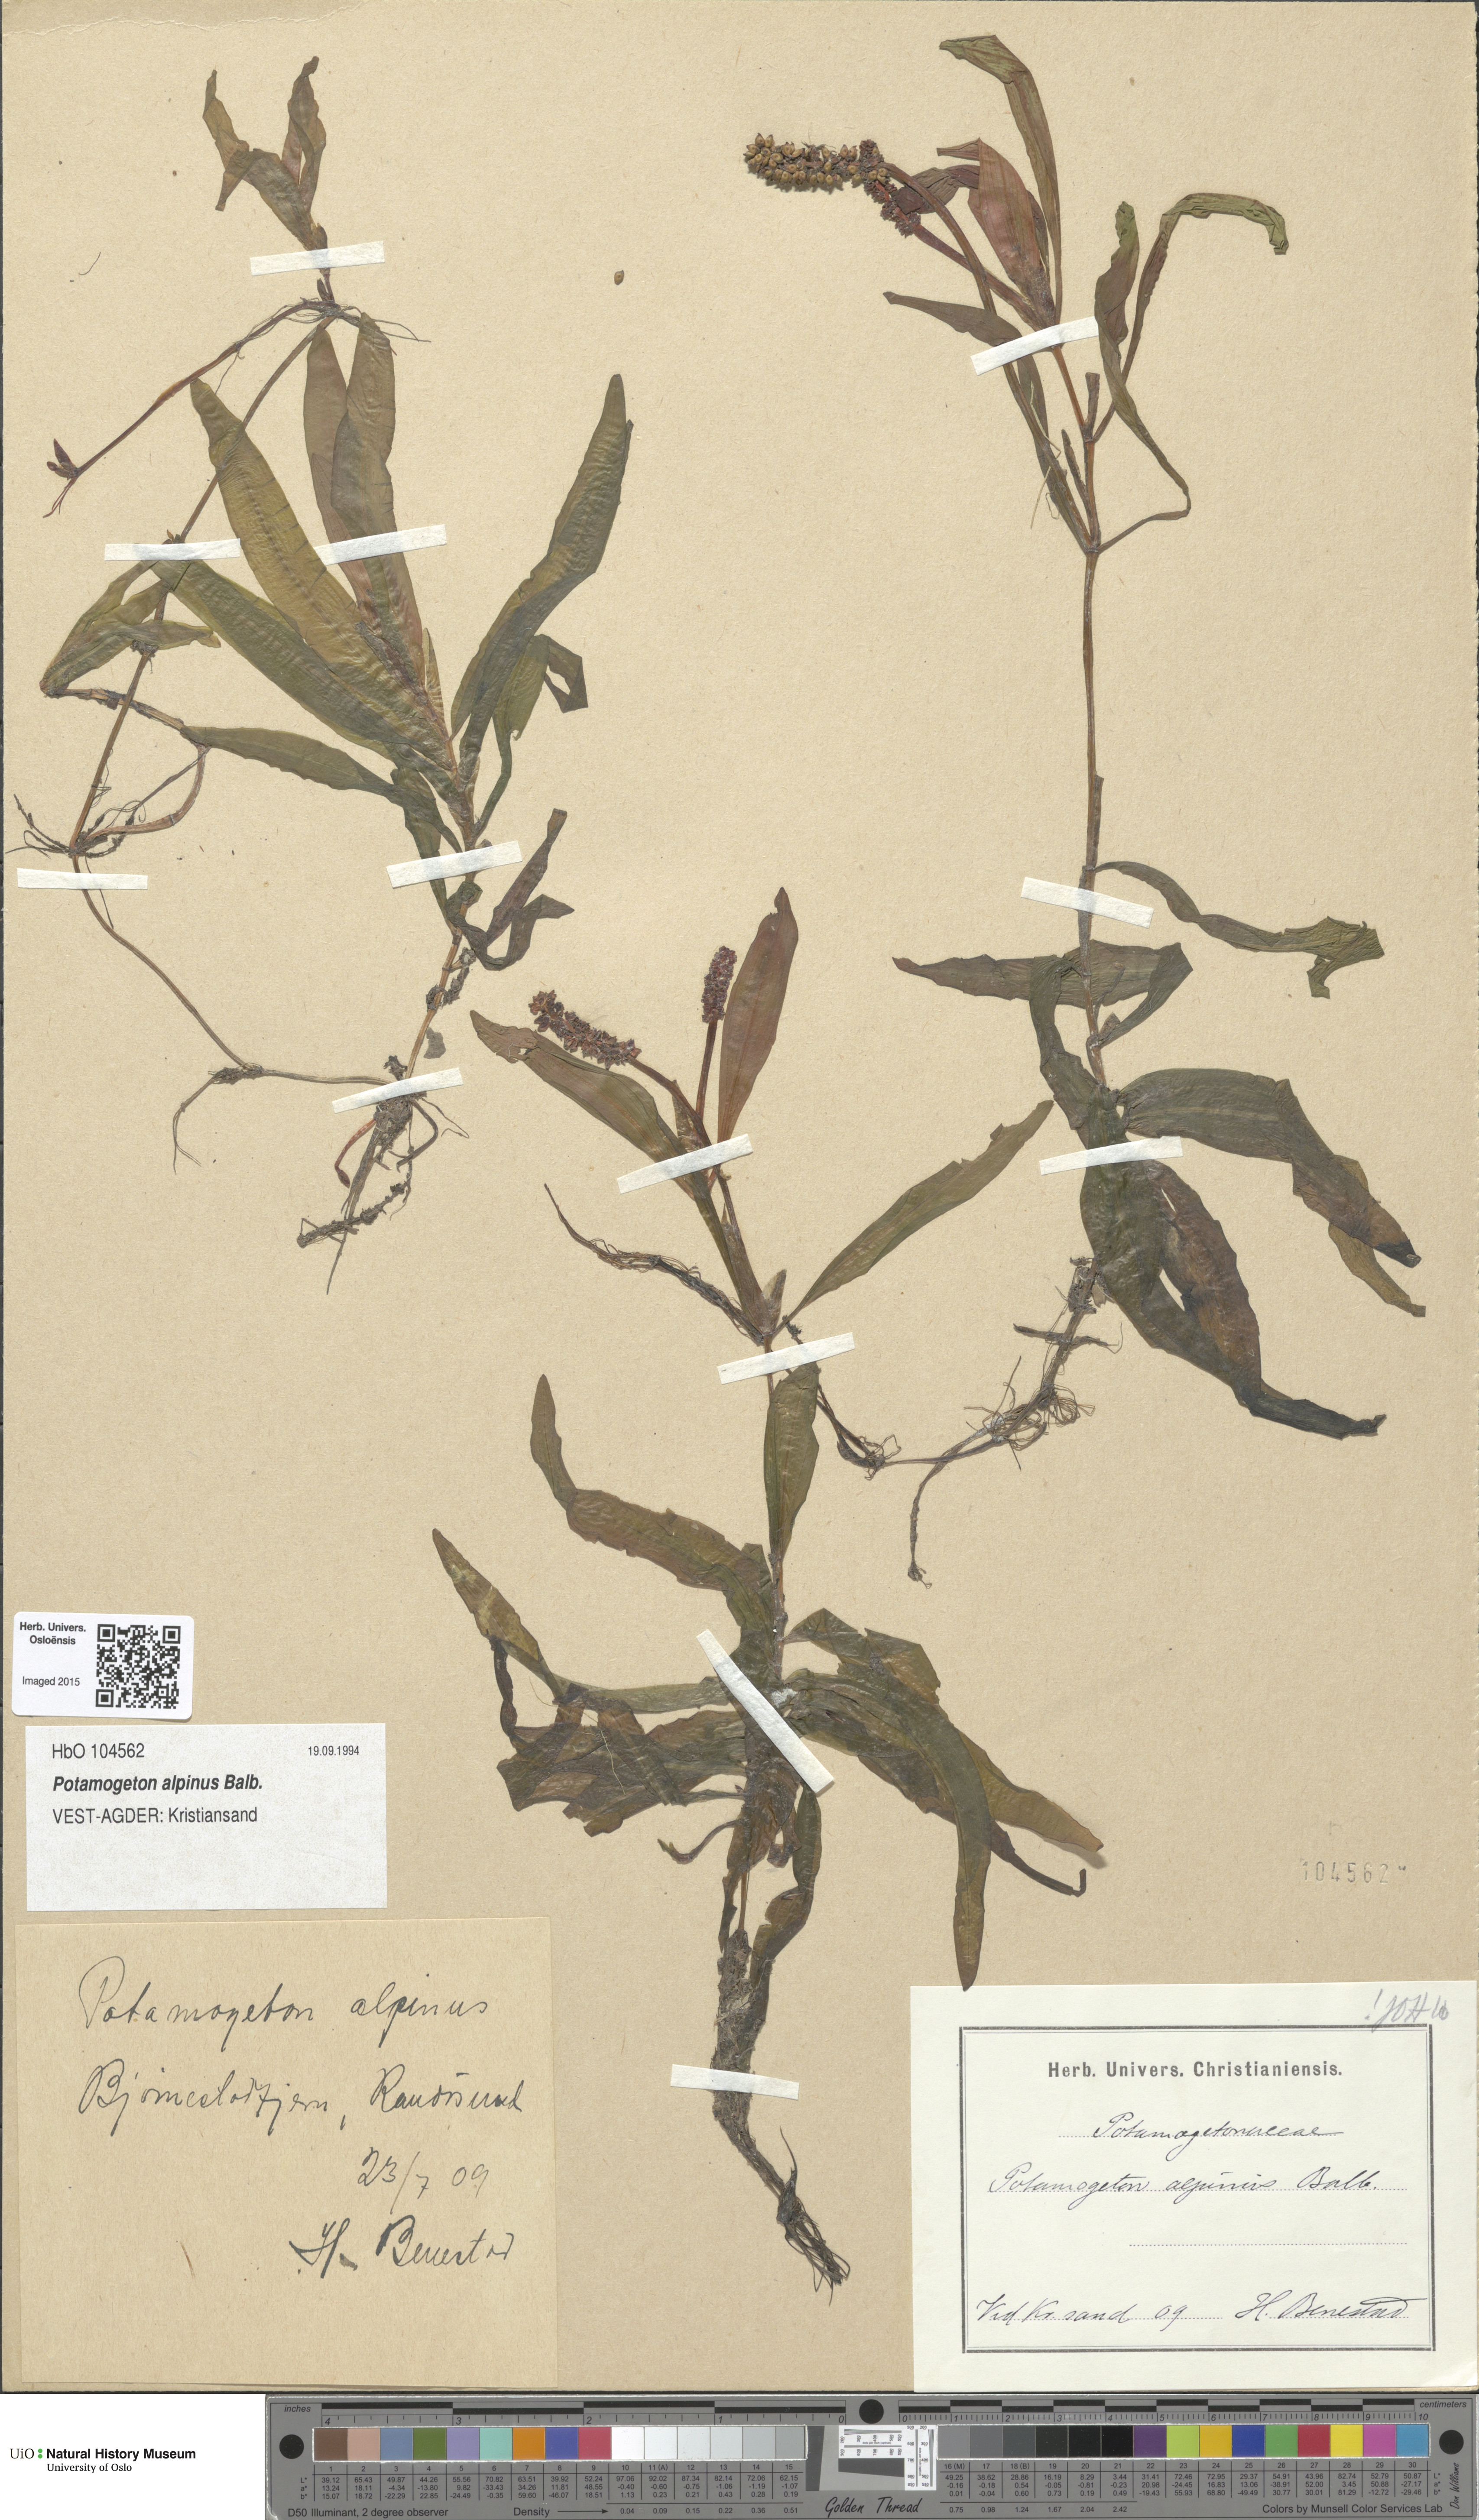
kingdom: Plantae
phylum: Tracheophyta
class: Liliopsida
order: Alismatales
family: Potamogetonaceae
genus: Potamogeton
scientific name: Potamogeton alpinus
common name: Red pondweed
